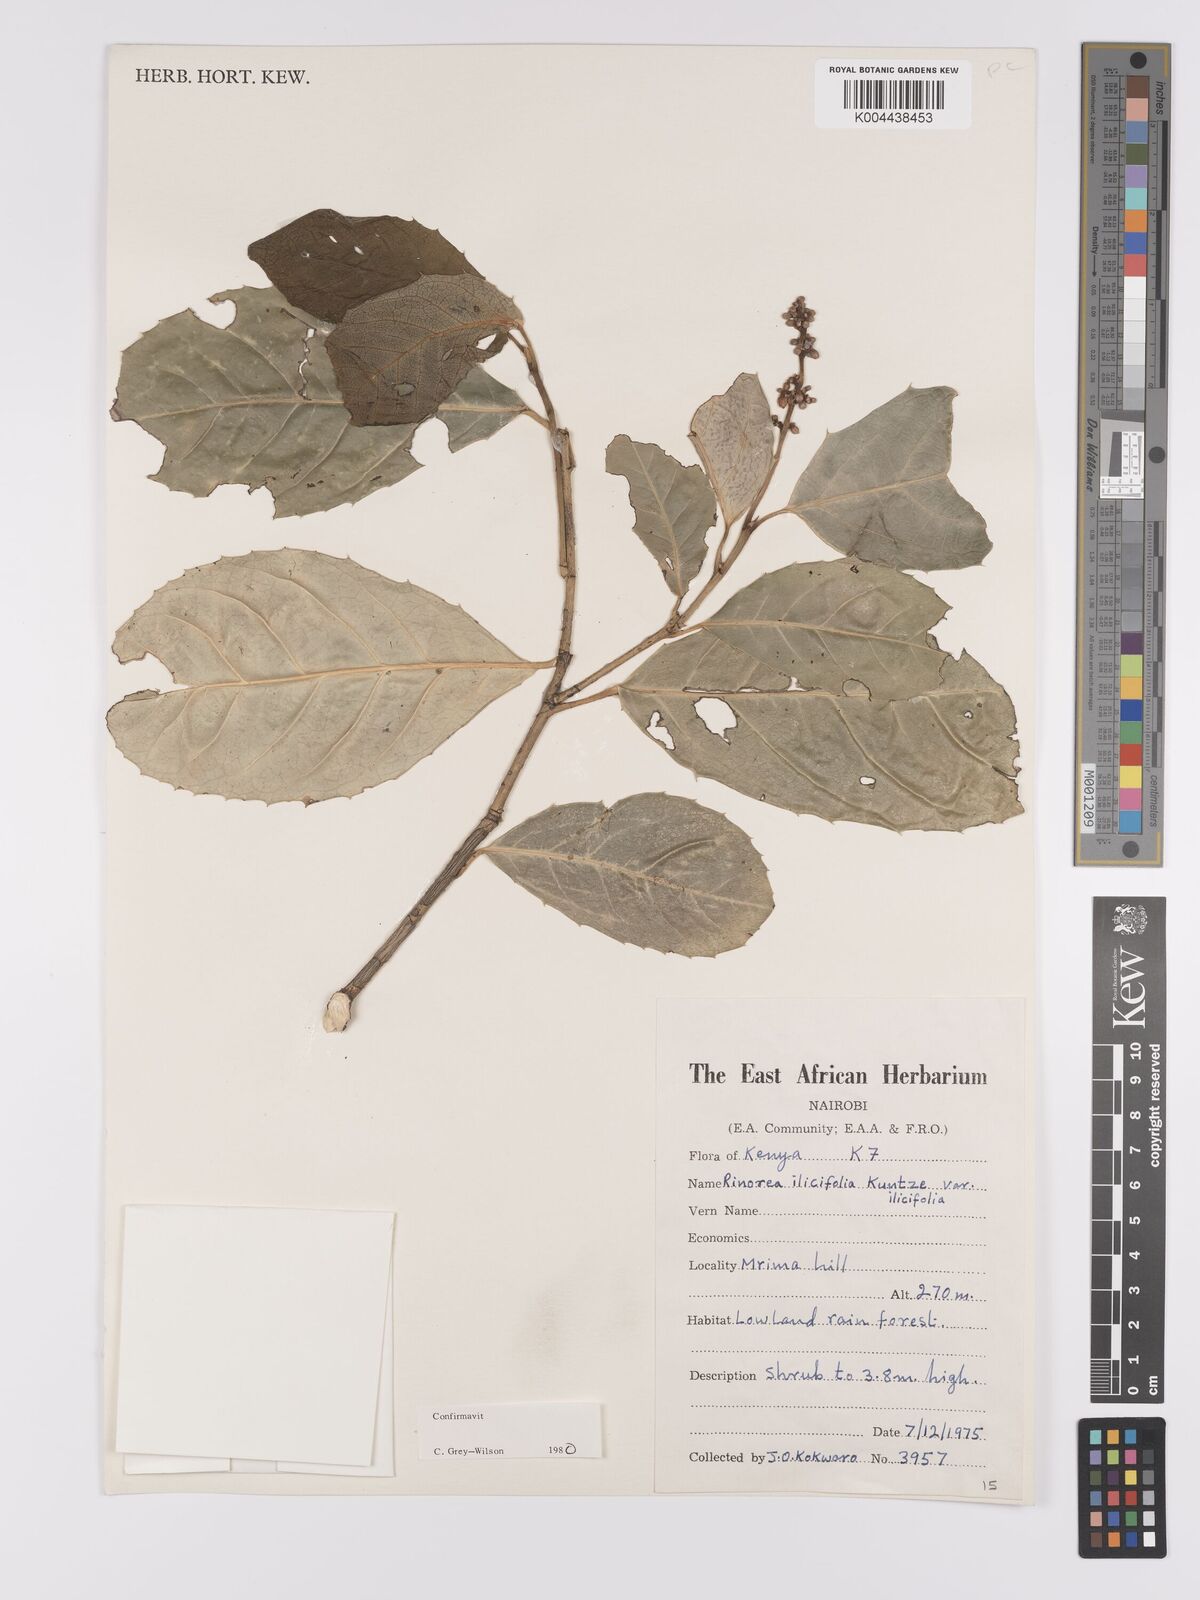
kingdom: Plantae
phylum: Tracheophyta
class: Magnoliopsida
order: Malpighiales
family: Violaceae
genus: Rinorea
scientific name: Rinorea ilicifolia
